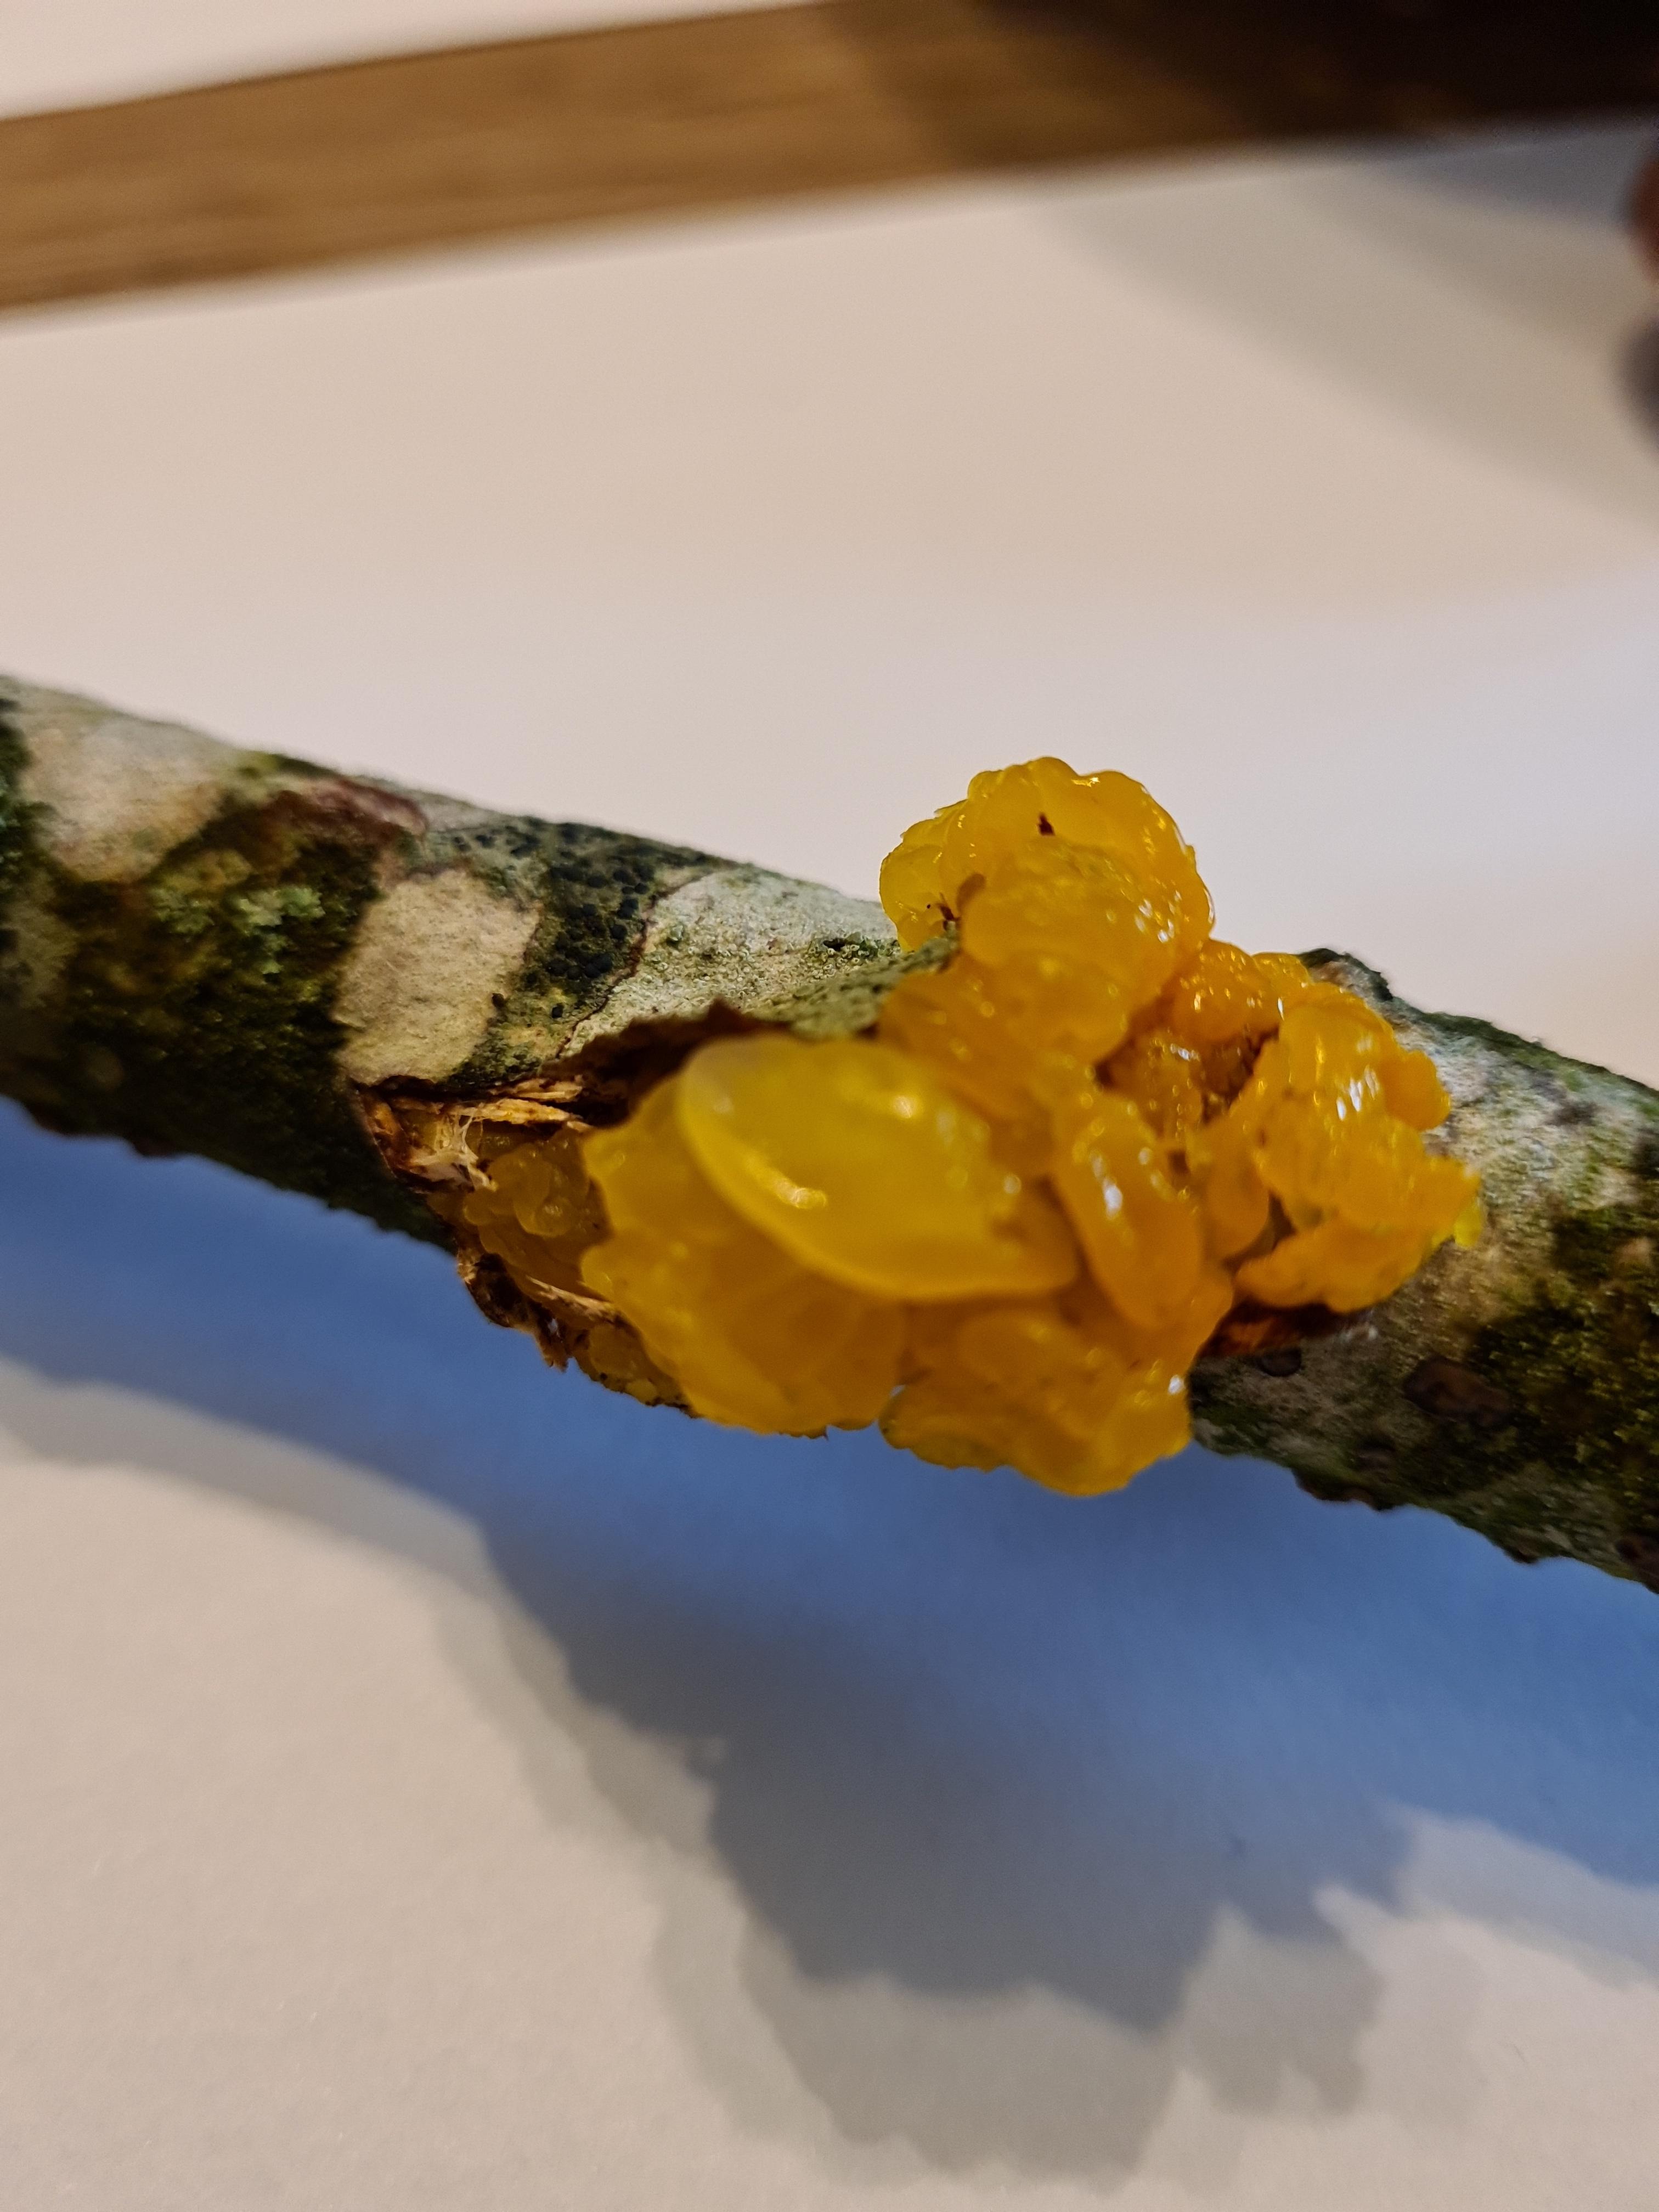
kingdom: Fungi
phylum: Basidiomycota
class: Tremellomycetes
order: Tremellales
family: Tremellaceae
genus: Tremella
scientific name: Tremella mesenterica
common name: gul bævresvamp
